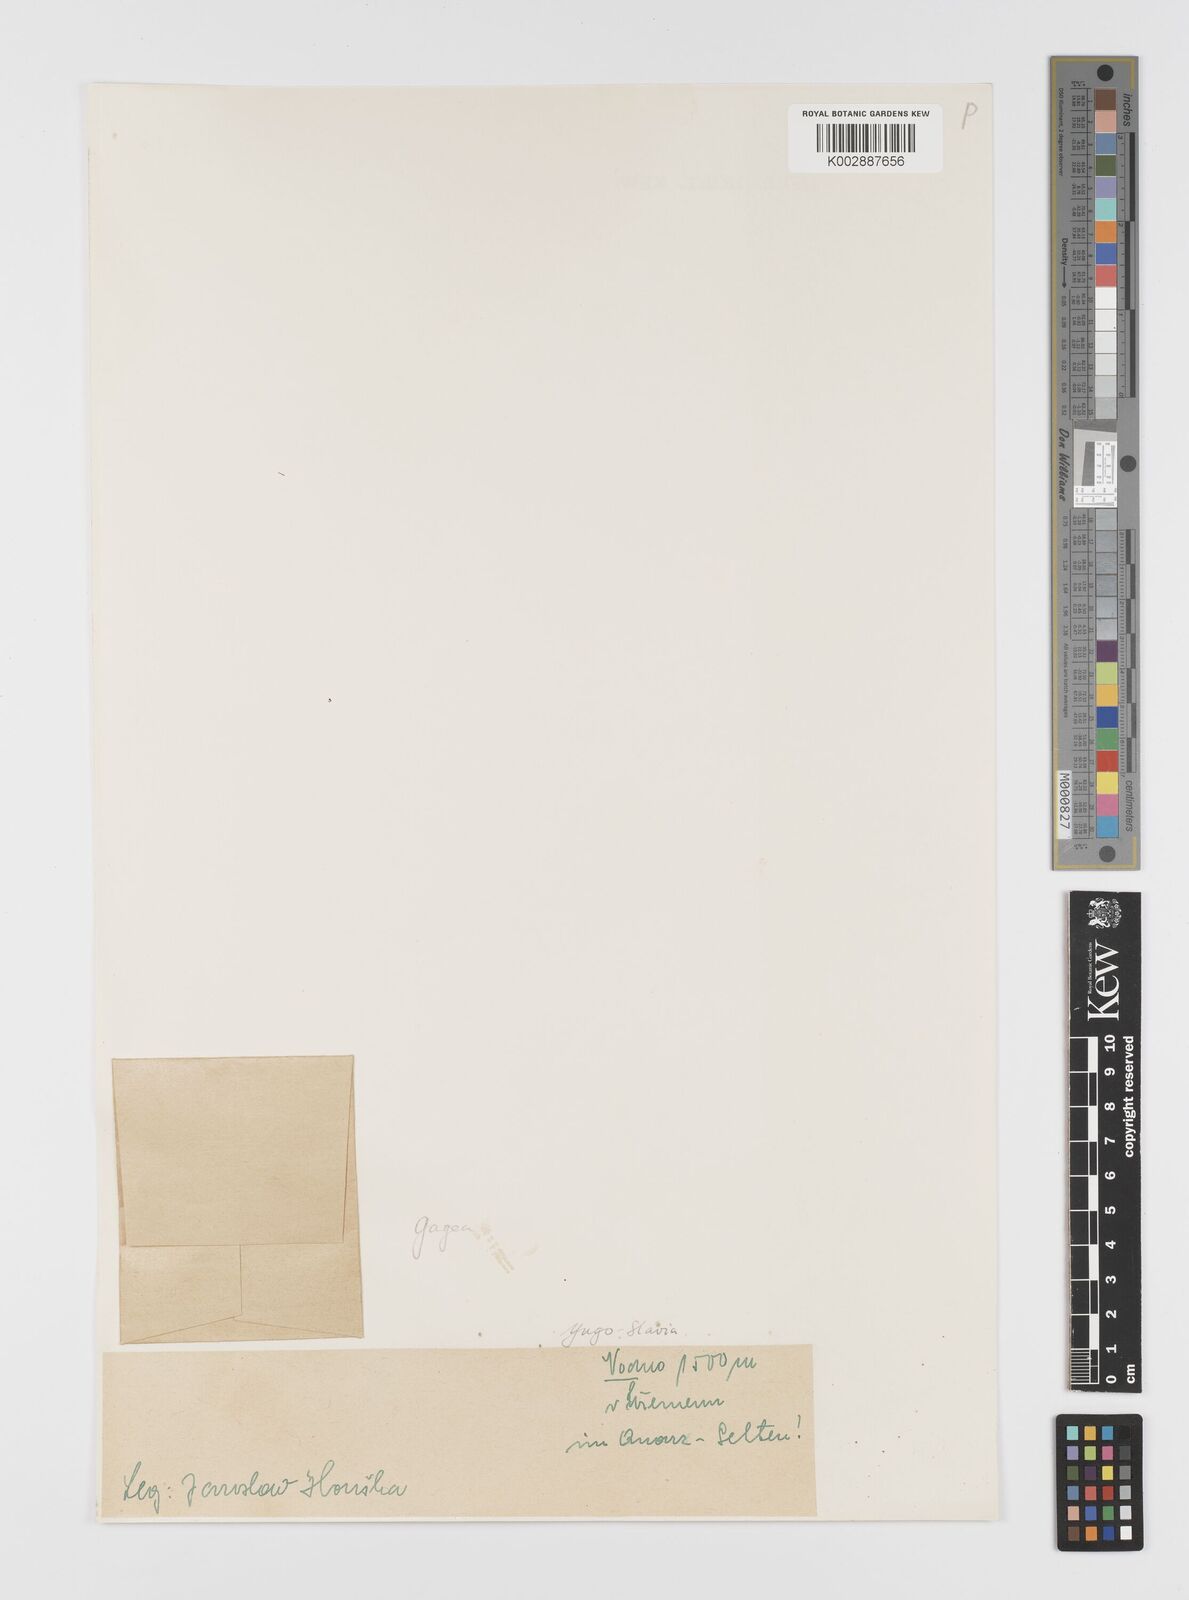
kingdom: Plantae
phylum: Tracheophyta
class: Liliopsida
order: Liliales
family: Liliaceae
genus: Gagea
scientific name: Gagea polymorpha
